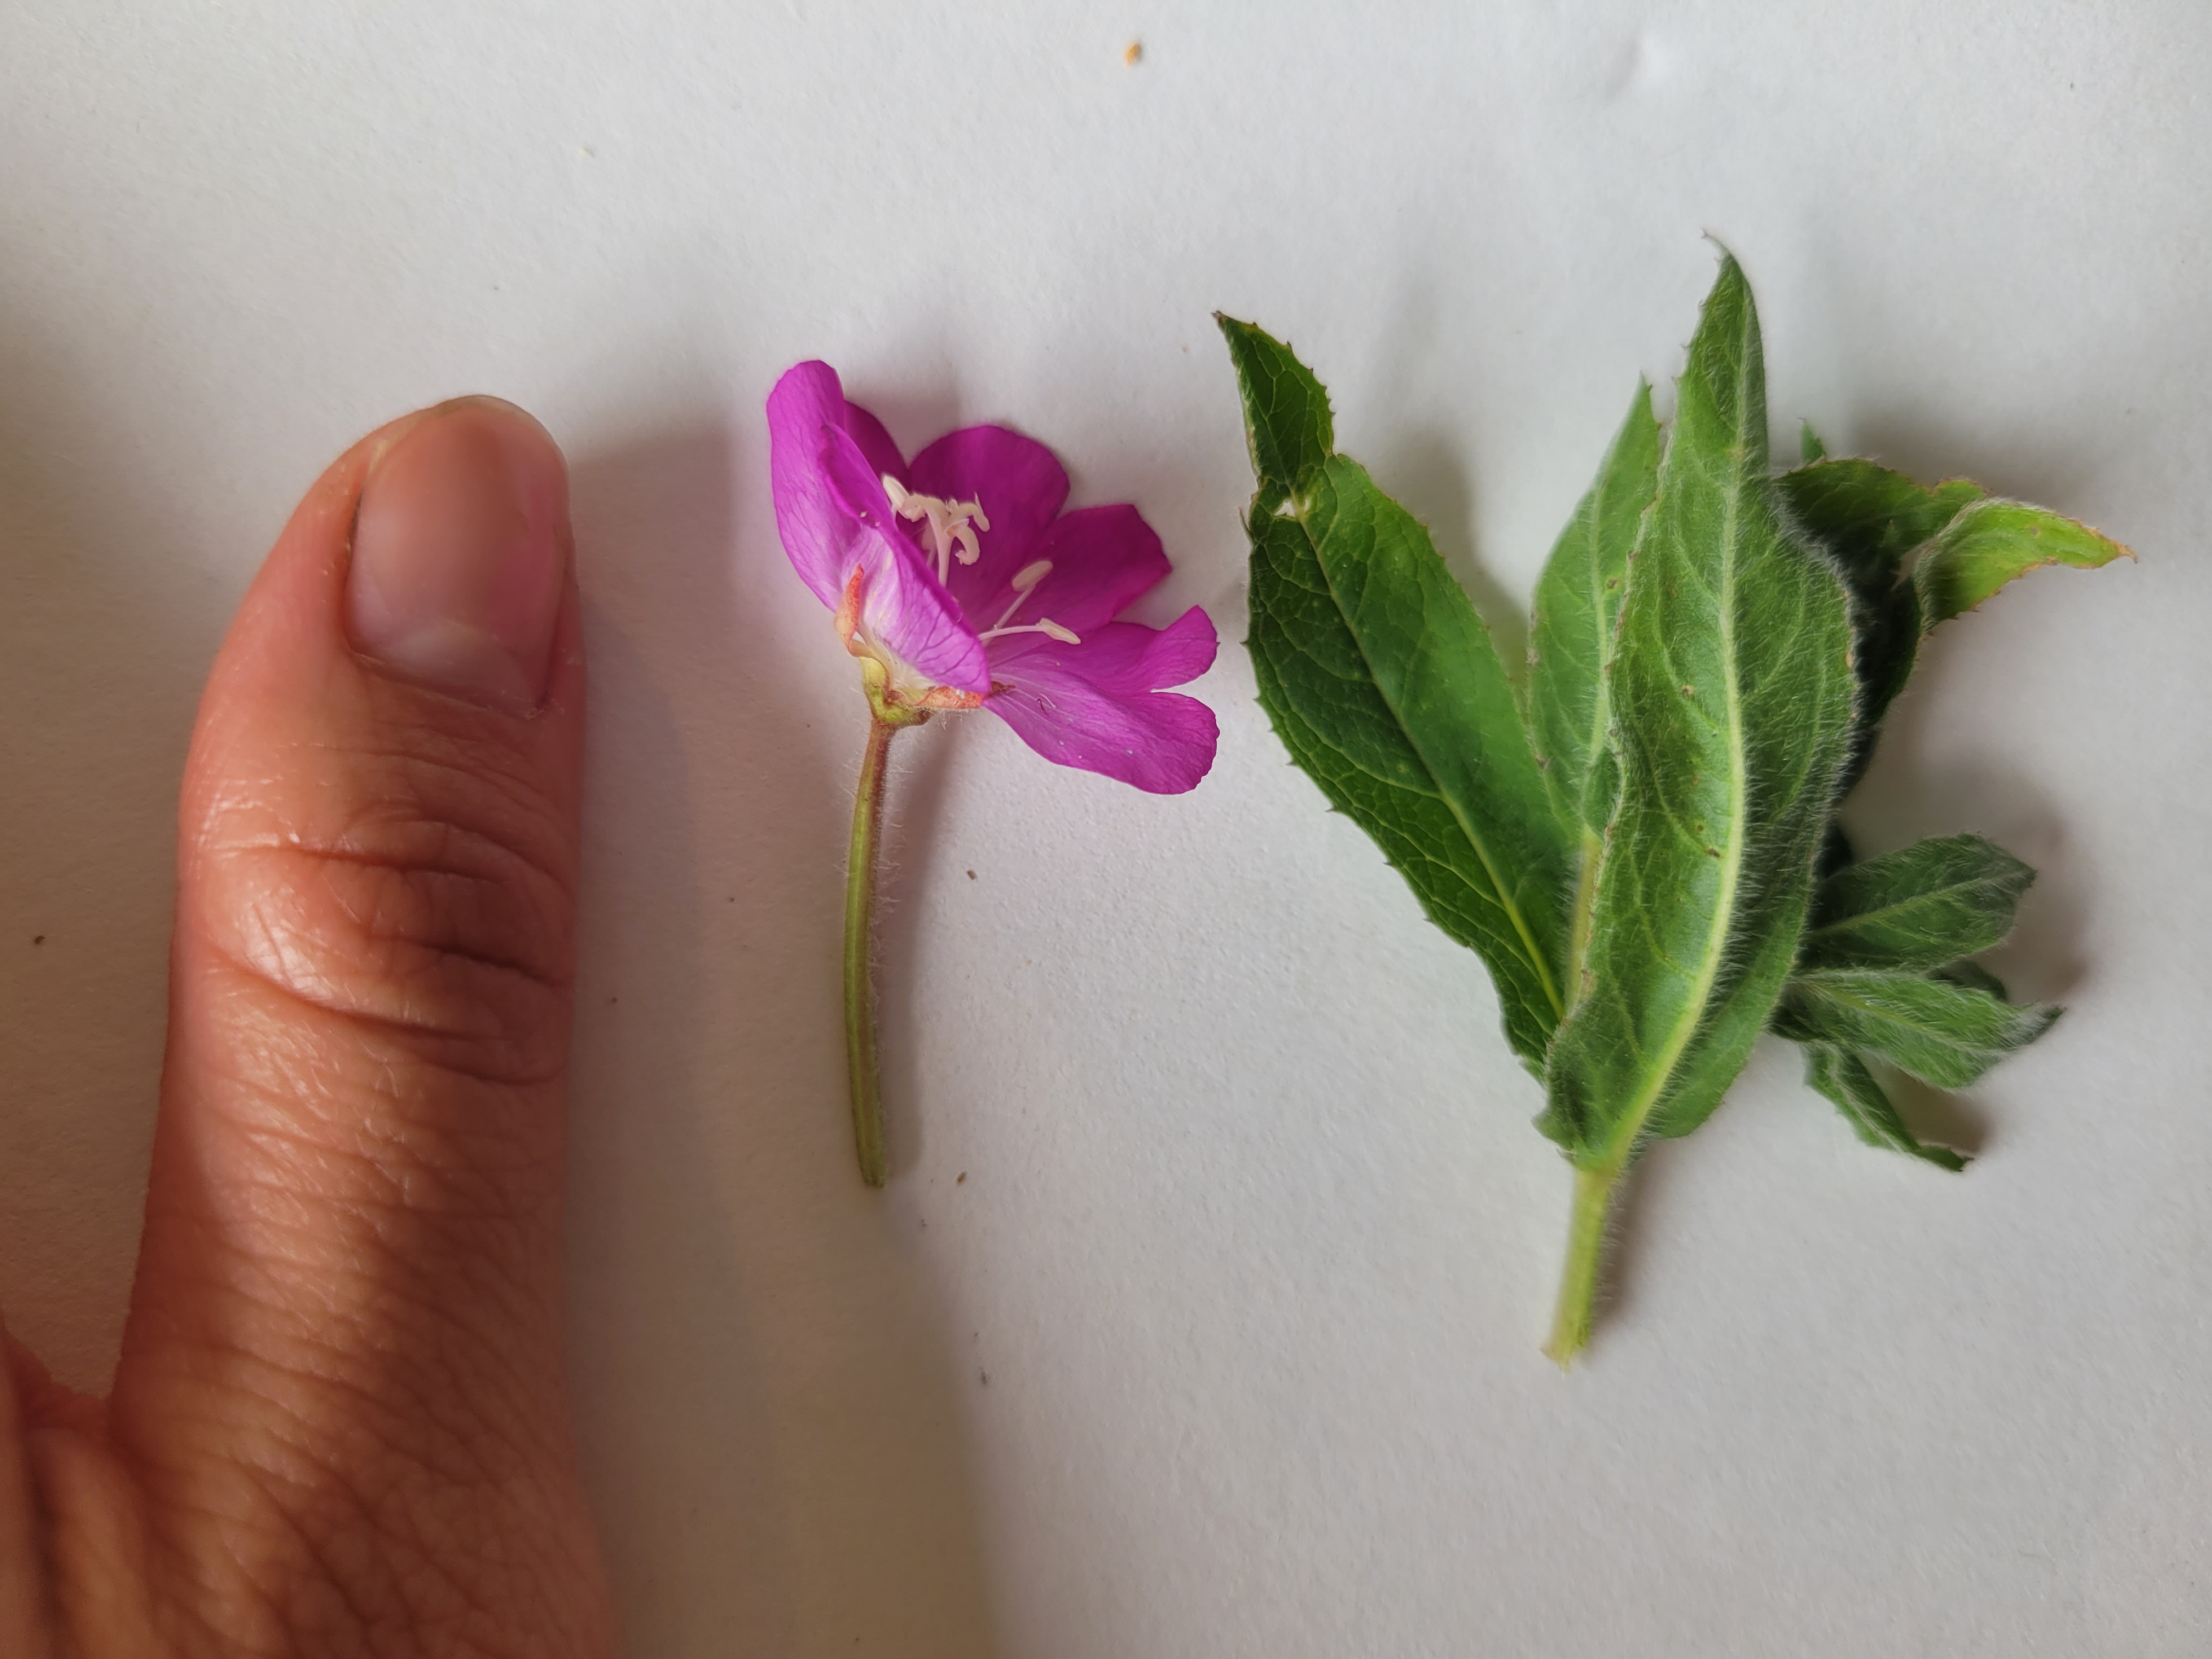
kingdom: Plantae
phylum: Tracheophyta
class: Magnoliopsida
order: Myrtales
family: Onagraceae
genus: Epilobium
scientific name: Epilobium hirsutum
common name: Lådden dueurt
